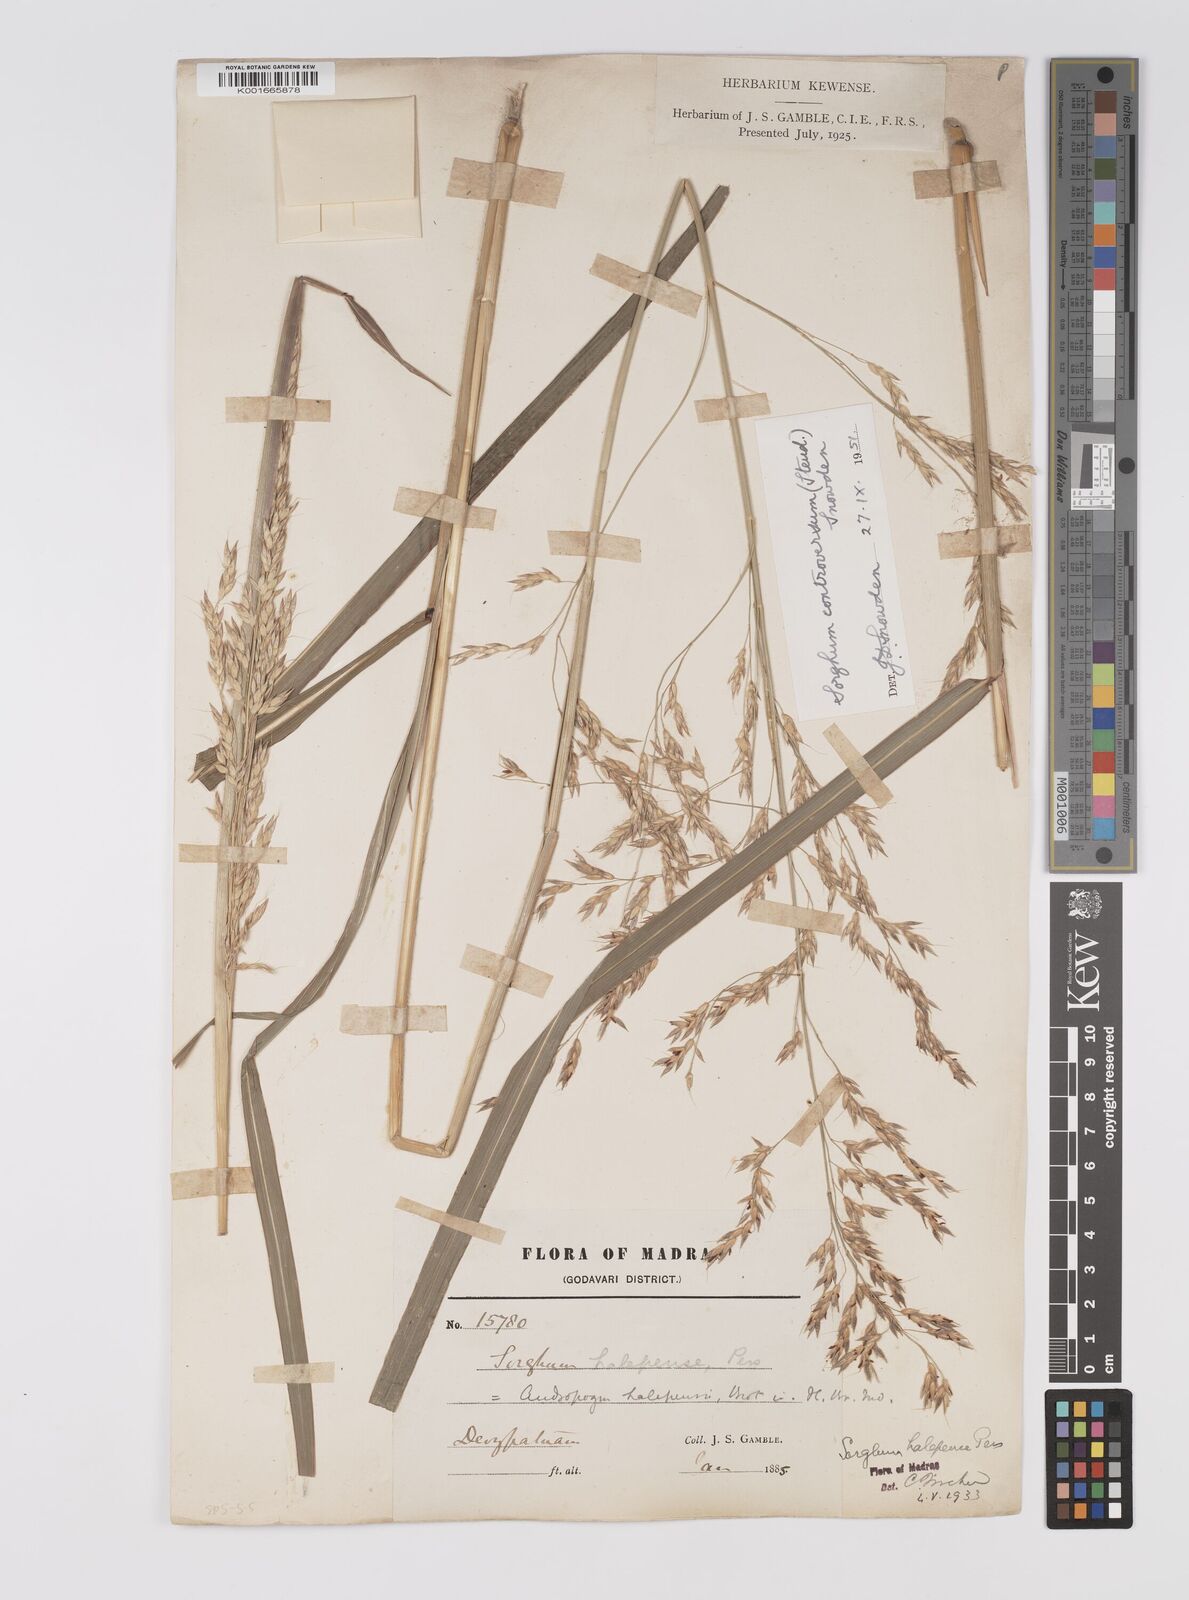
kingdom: Plantae
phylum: Tracheophyta
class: Liliopsida
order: Poales
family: Poaceae
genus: Sorghum
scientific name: Sorghum controversum
